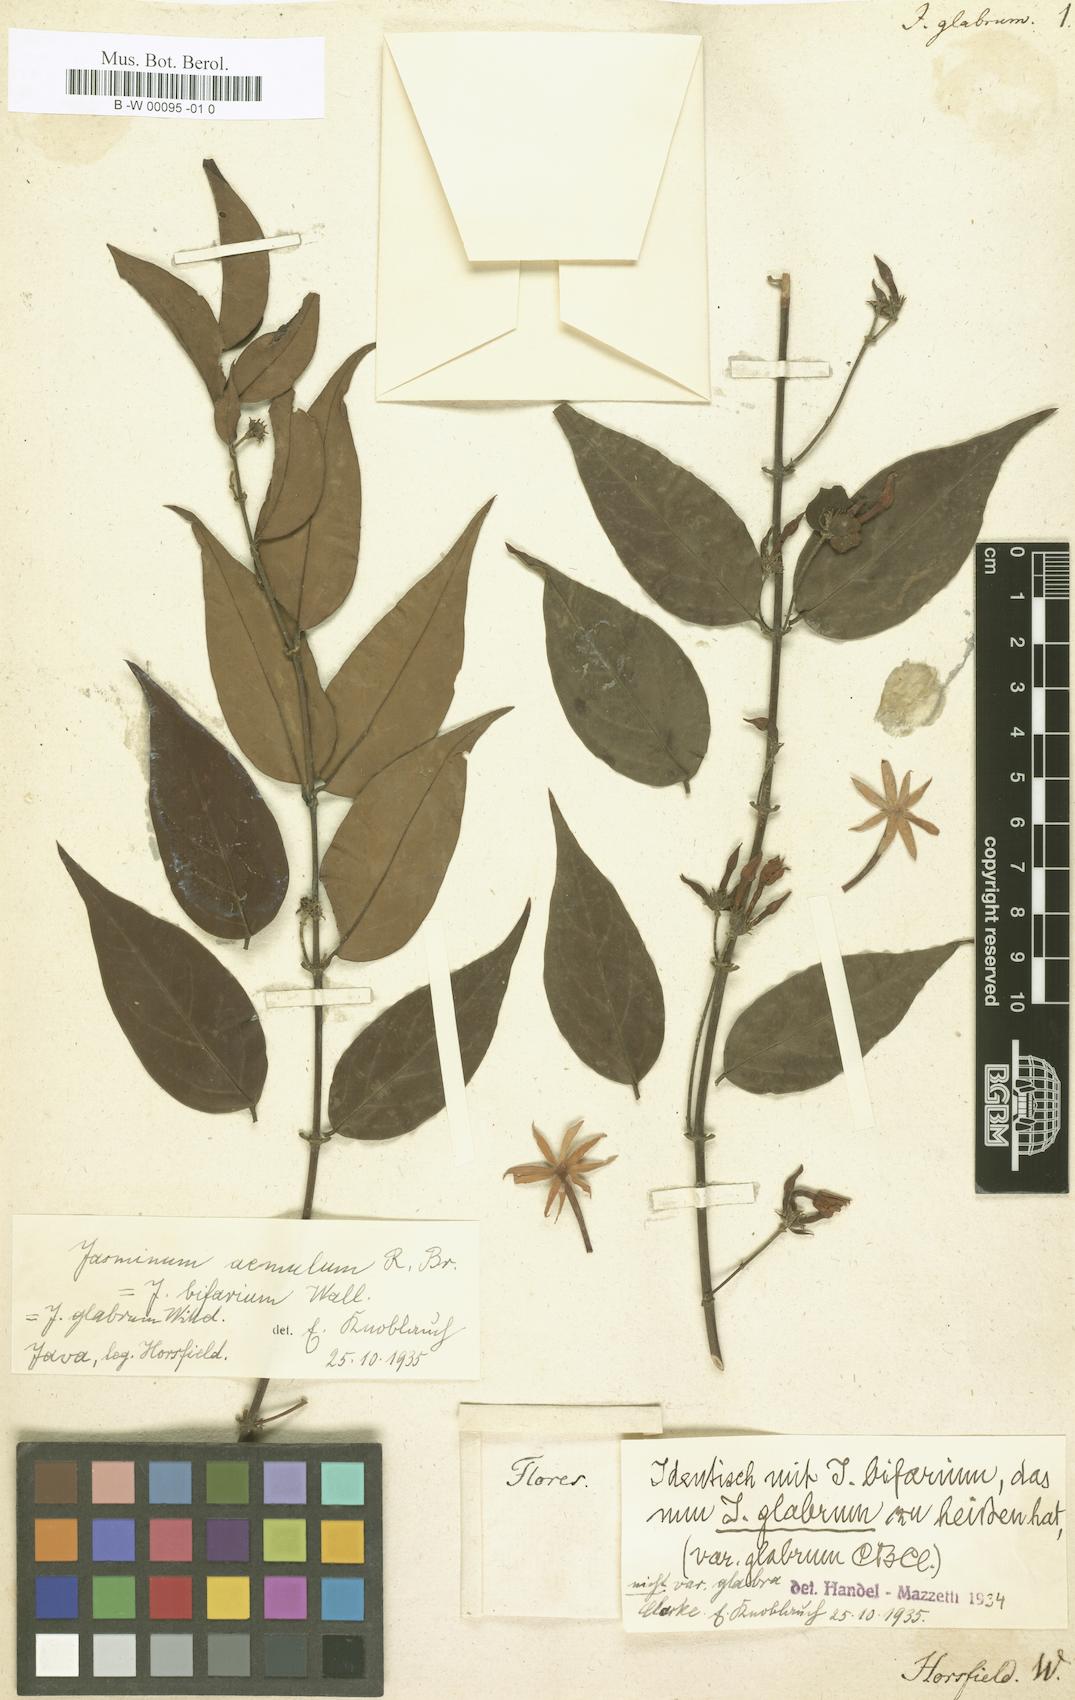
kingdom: Plantae
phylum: Tracheophyta
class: Magnoliopsida
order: Lamiales
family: Oleaceae
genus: Jasminum
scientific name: Jasminum elongatum
